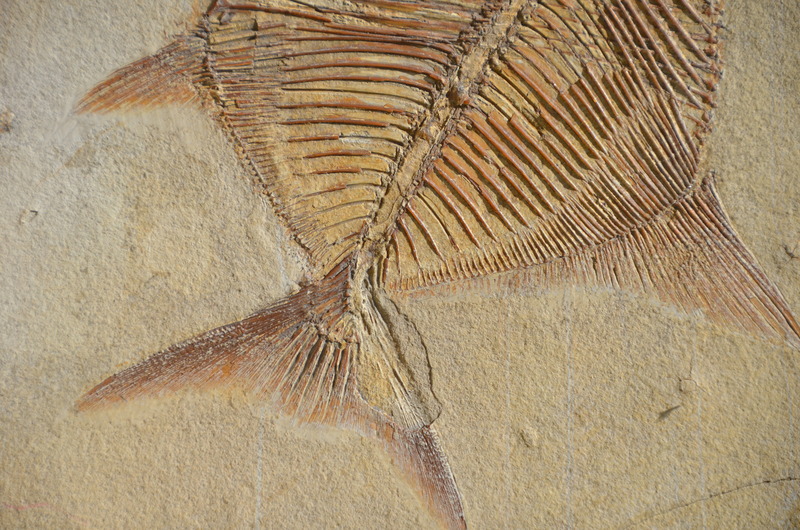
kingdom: Animalia
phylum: Chordata
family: Pycnodontidae
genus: Proscinetes
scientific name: Proscinetes elegans
